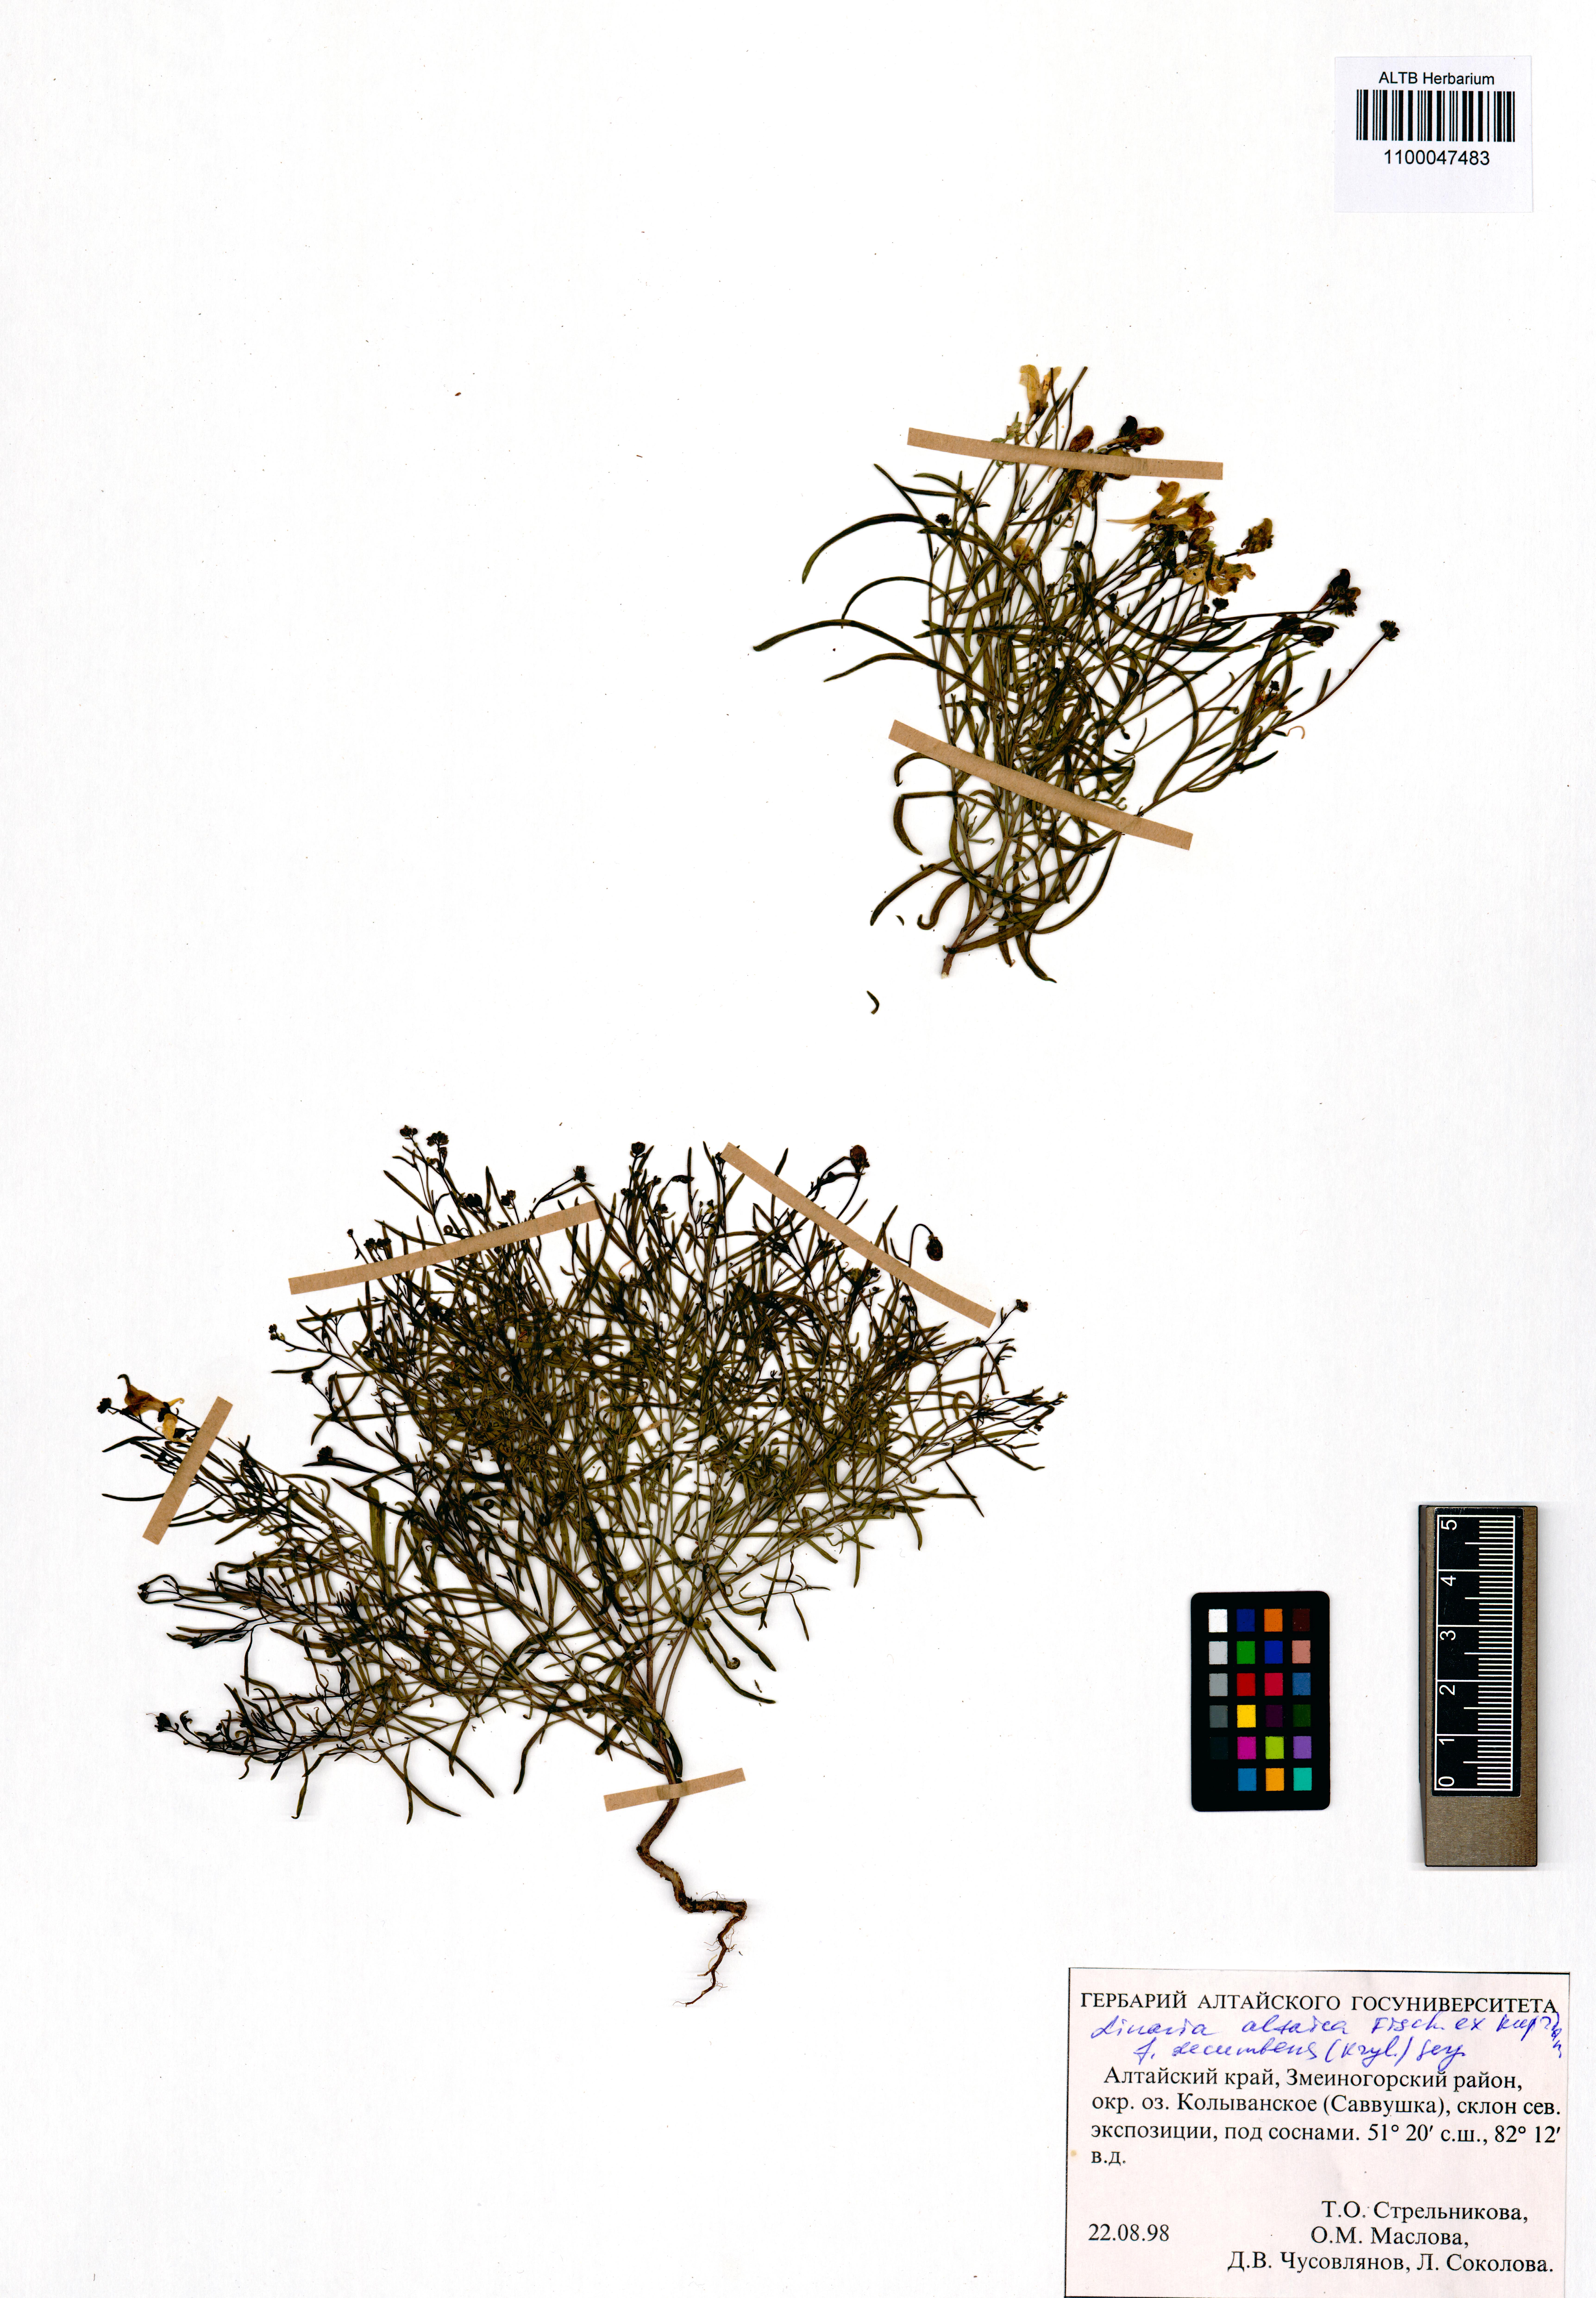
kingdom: Plantae
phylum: Tracheophyta
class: Magnoliopsida
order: Lamiales
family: Plantaginaceae
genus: Linaria
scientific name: Linaria altaica
